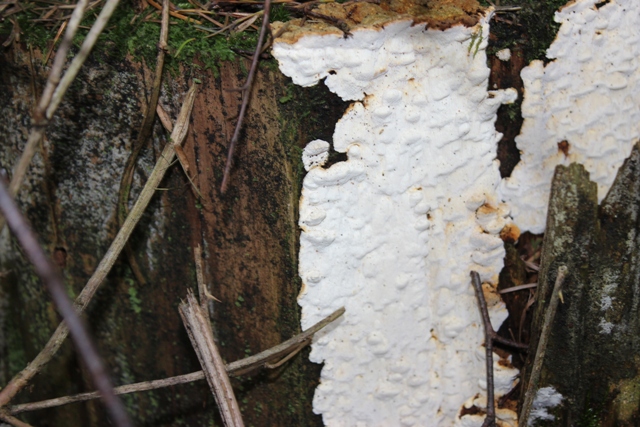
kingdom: Fungi
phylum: Basidiomycota
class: Agaricomycetes
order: Polyporales
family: Fomitopsidaceae
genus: Neoantrodia
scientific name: Neoantrodia serialis
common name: række-sejporesvamp
